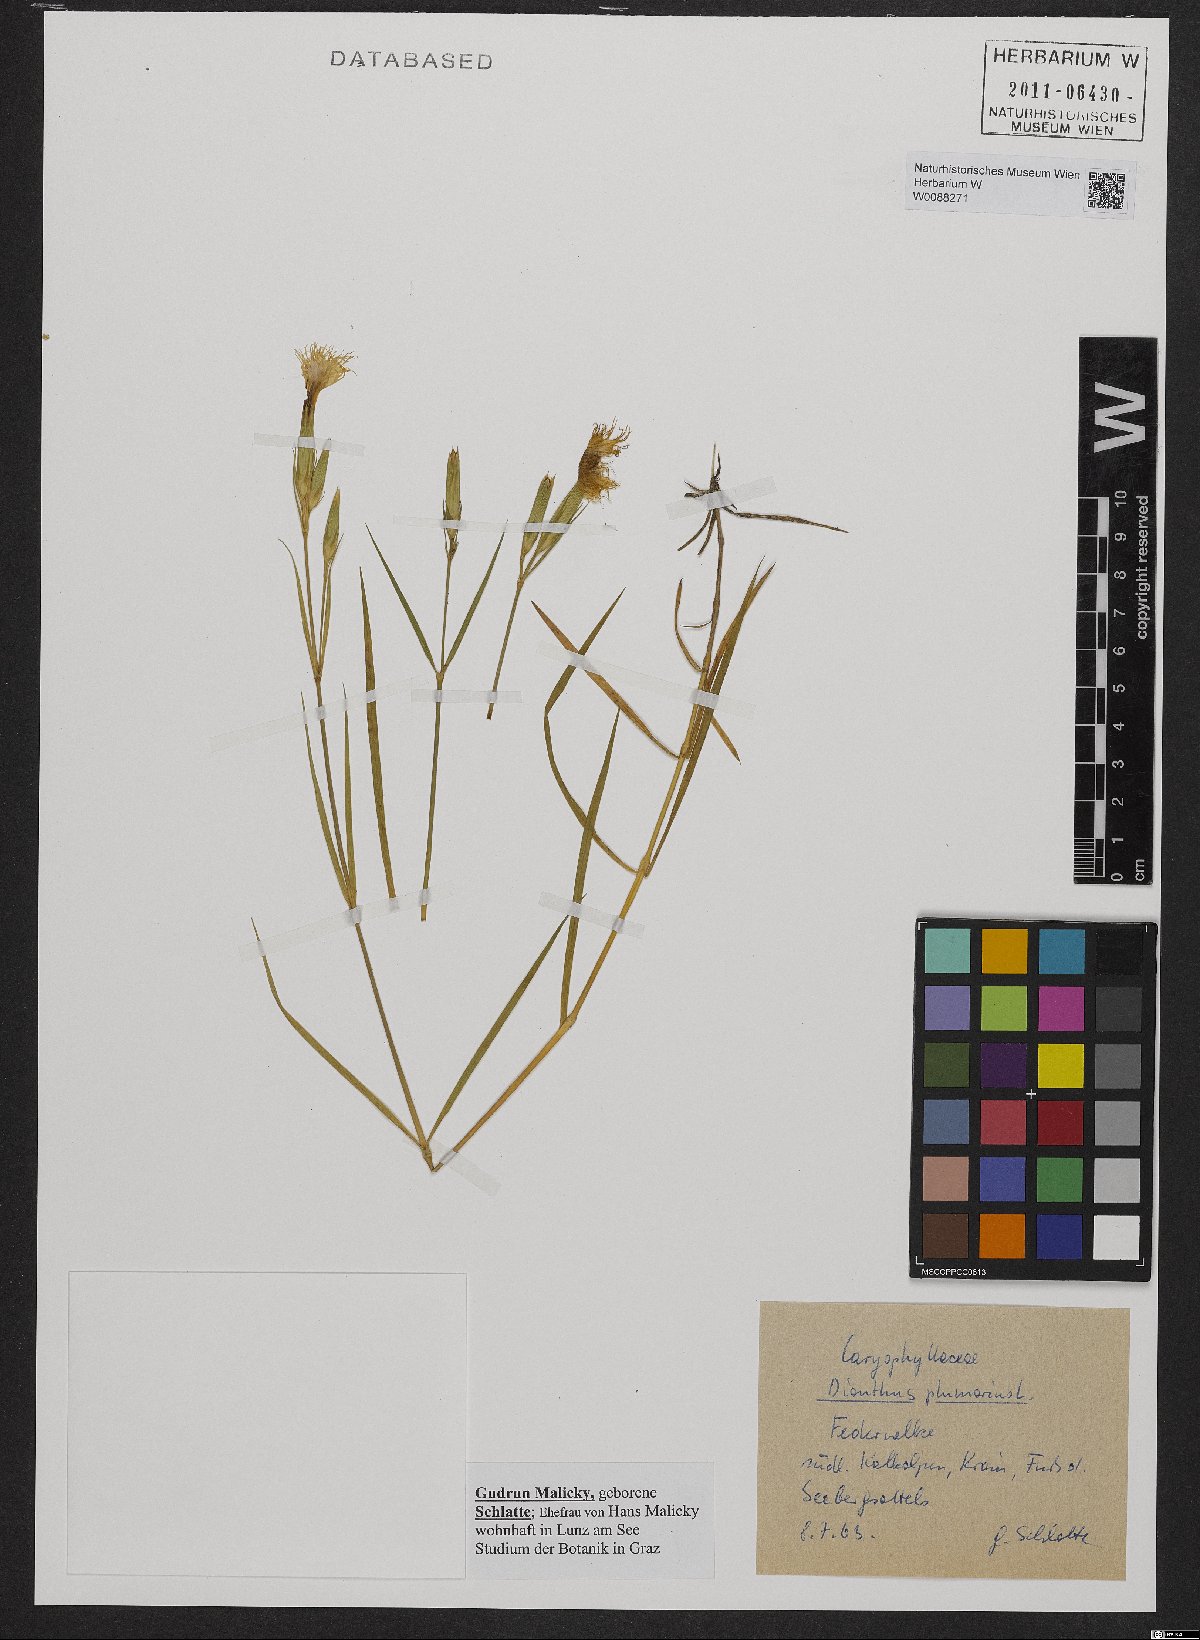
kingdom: Plantae
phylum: Tracheophyta
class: Magnoliopsida
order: Caryophyllales
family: Caryophyllaceae
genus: Dianthus
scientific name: Dianthus plumarius
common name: Pink
